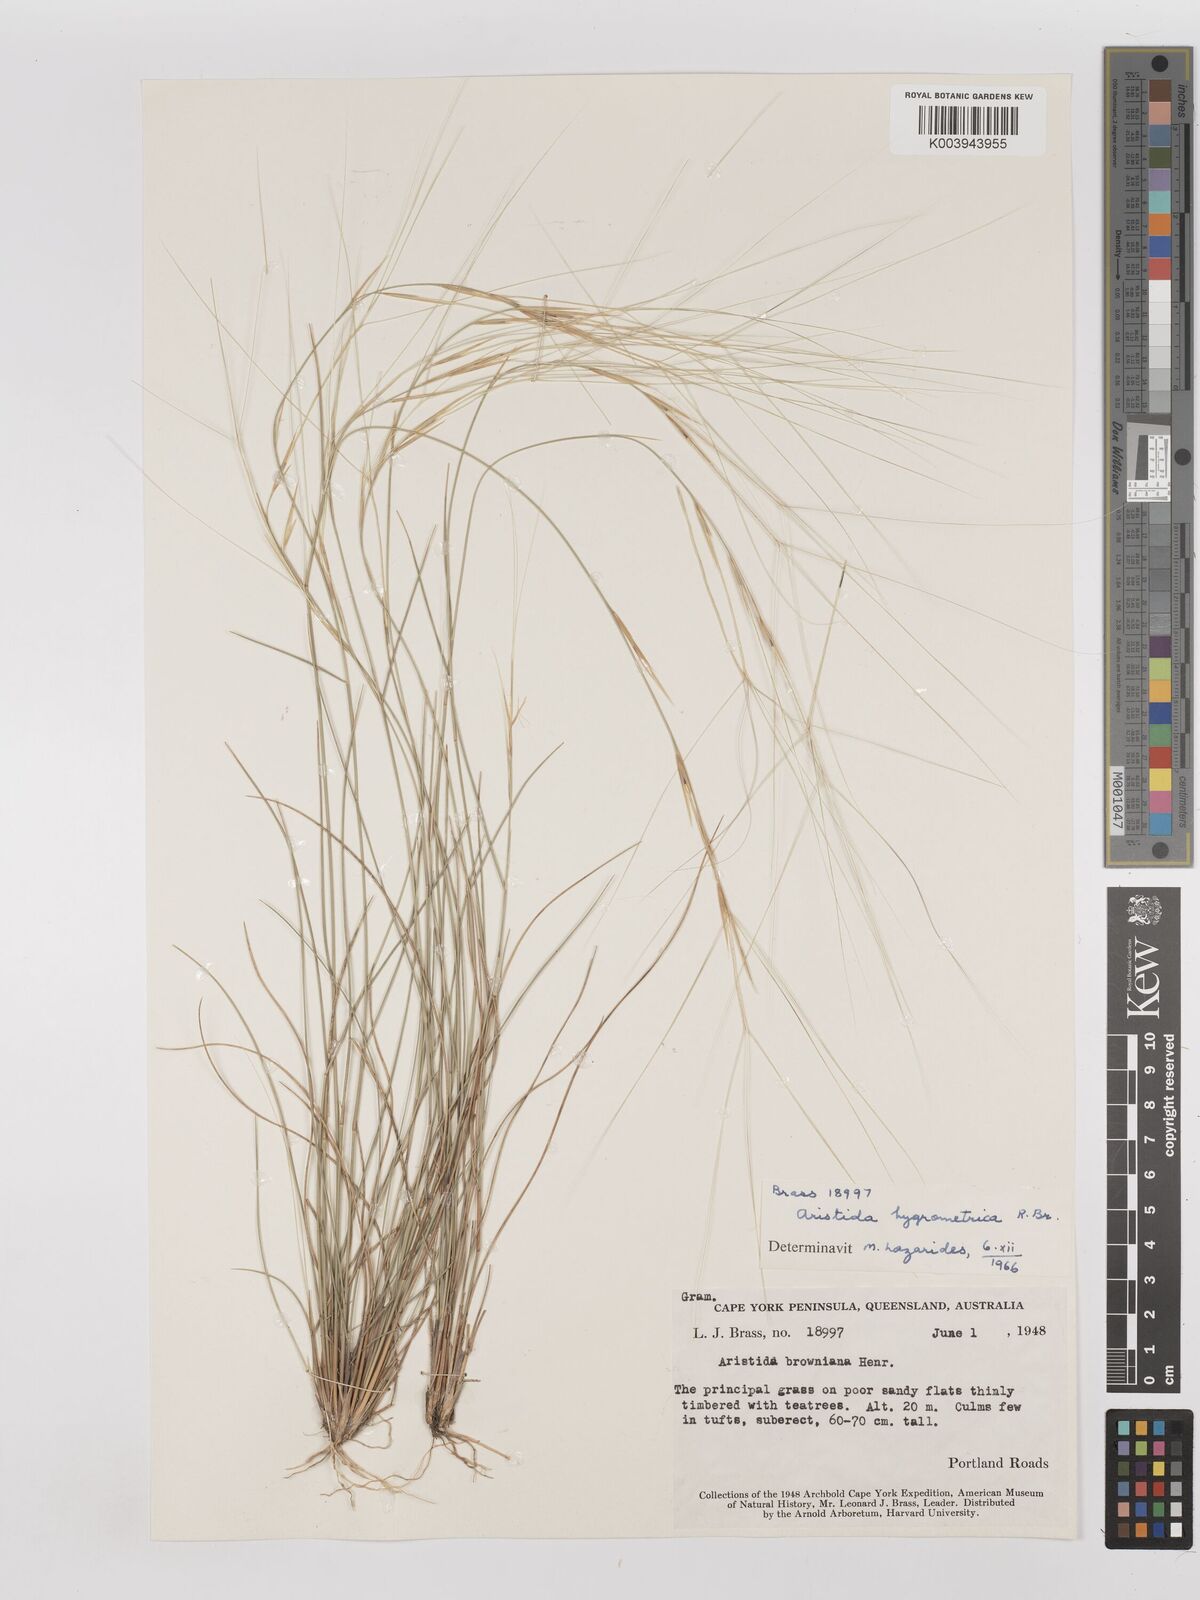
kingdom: Plantae
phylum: Tracheophyta
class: Liliopsida
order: Poales
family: Poaceae
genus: Aristida
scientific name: Aristida hygrometrica
